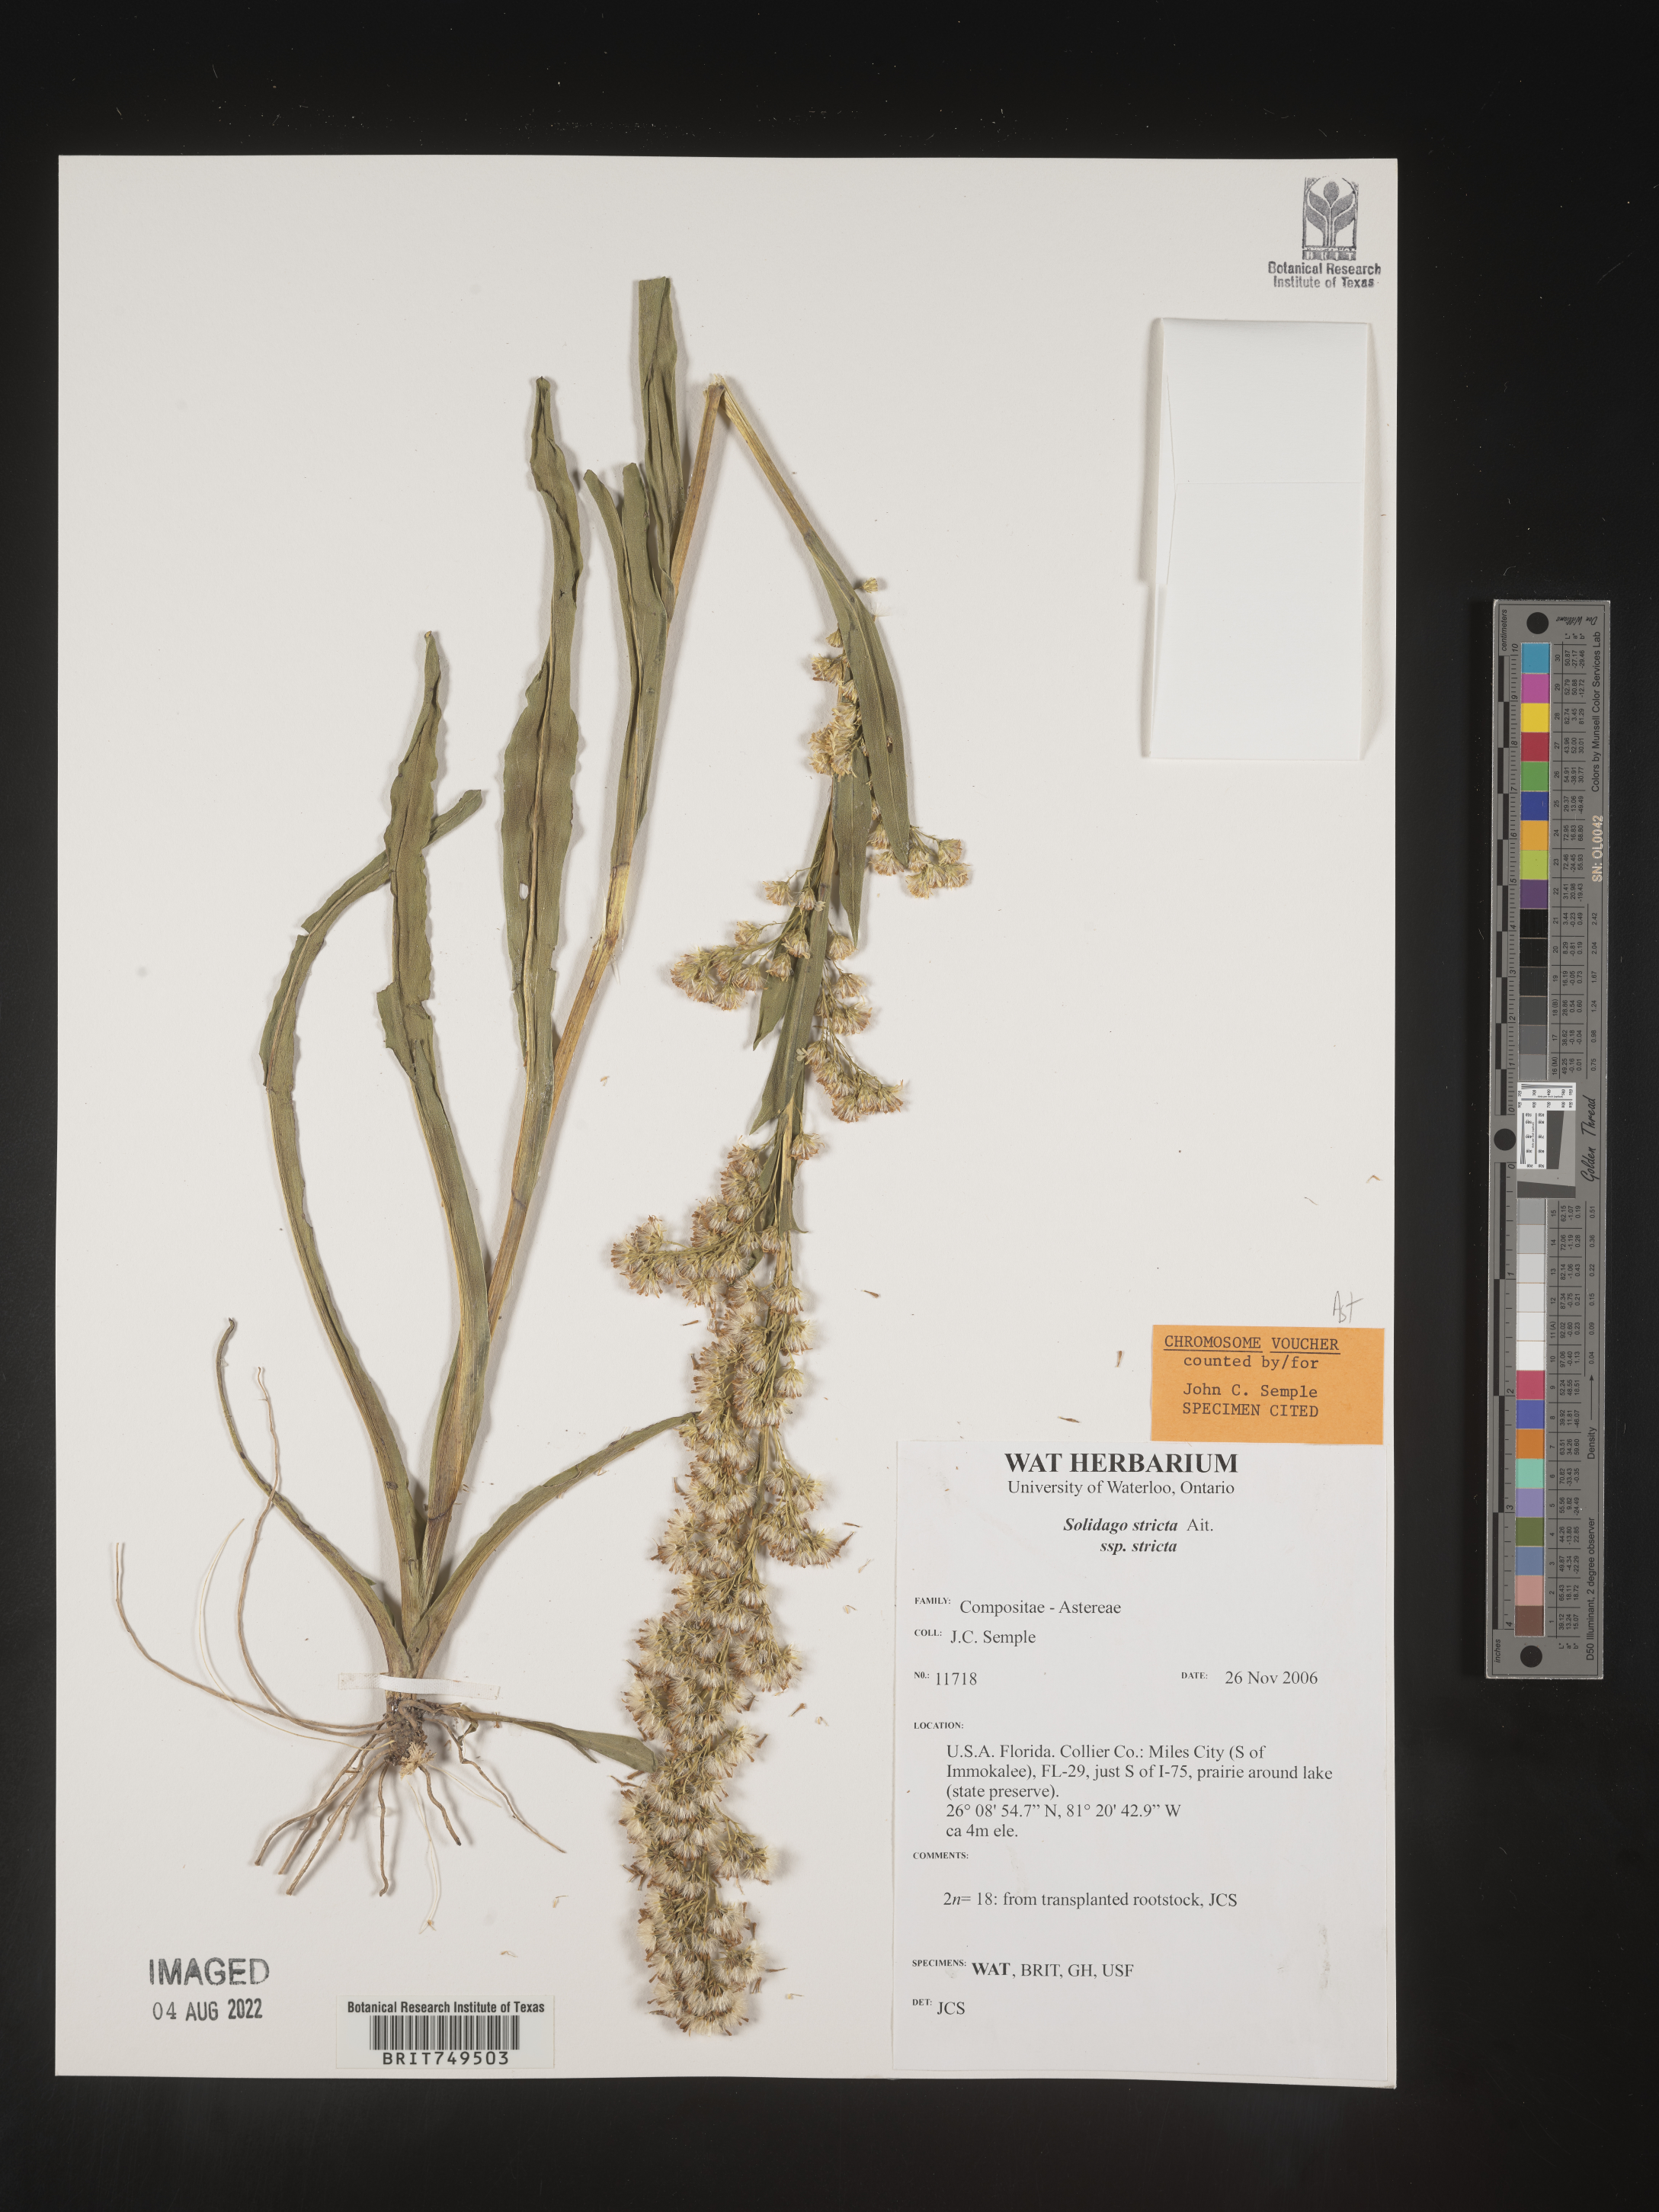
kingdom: Plantae
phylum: Tracheophyta
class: Magnoliopsida
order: Asterales
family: Asteraceae
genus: Solidago
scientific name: Solidago stricta
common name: Pine barren bog goldenrod
